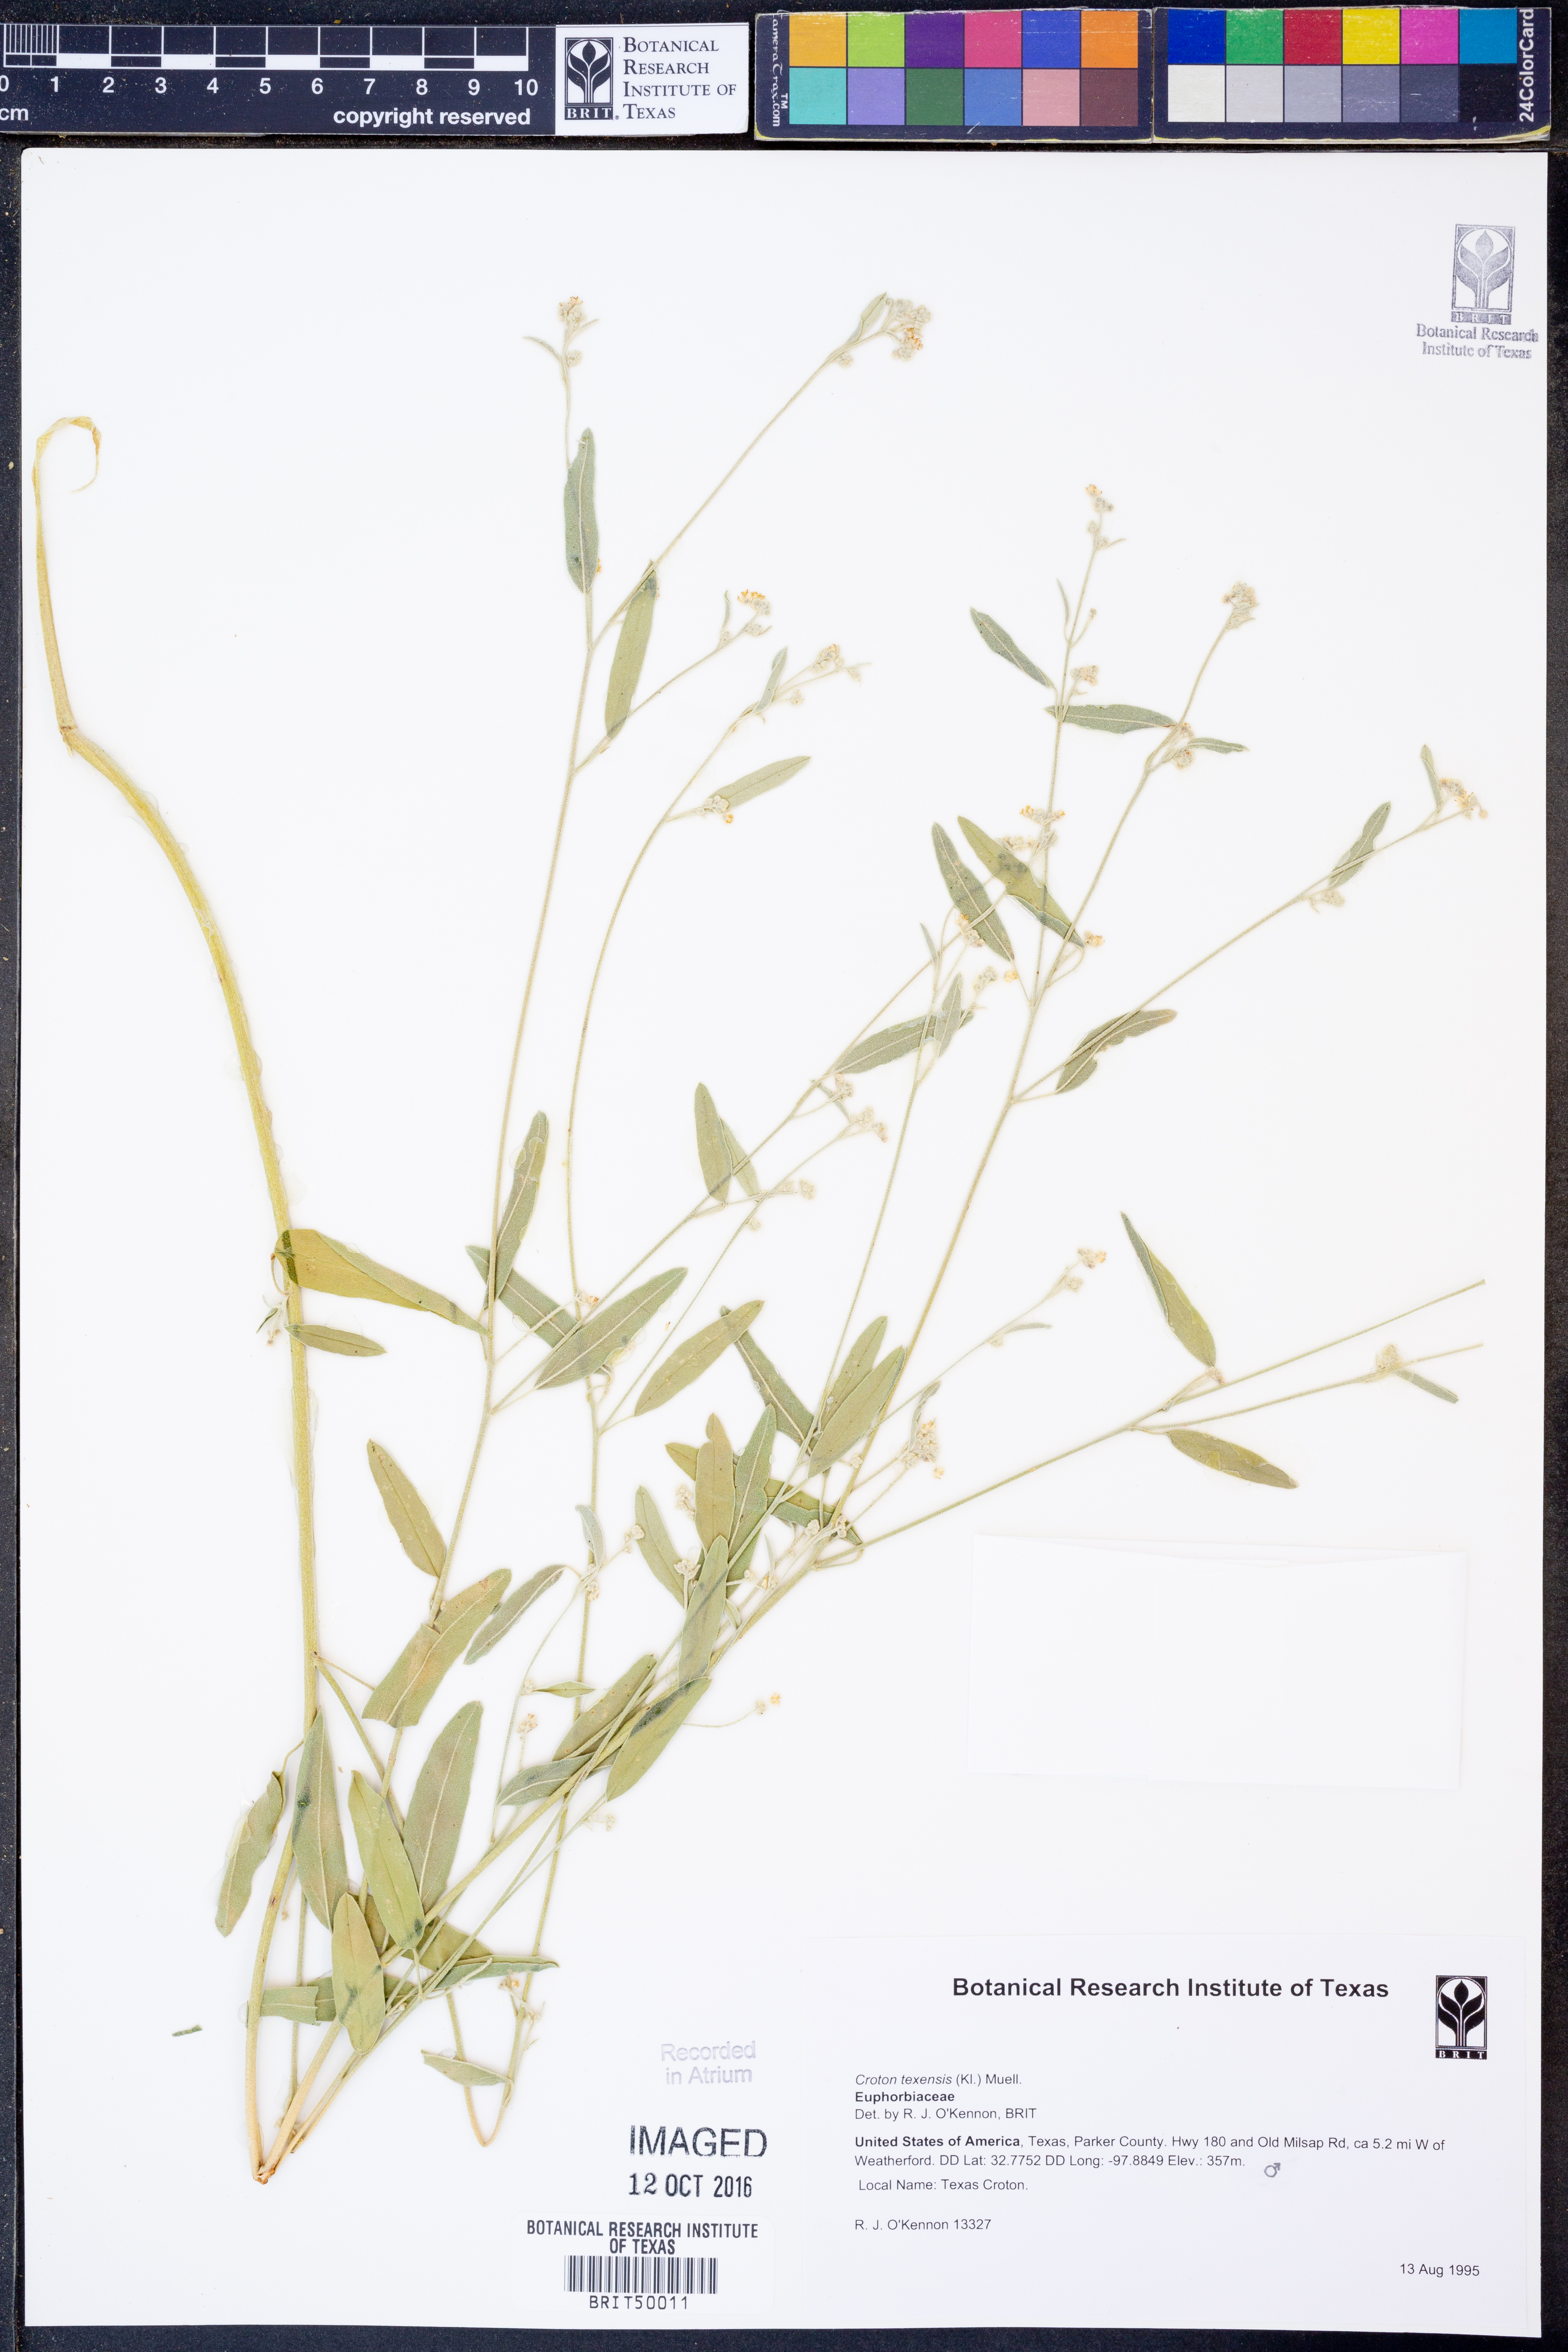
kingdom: Plantae
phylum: Tracheophyta
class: Magnoliopsida
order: Malpighiales
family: Euphorbiaceae
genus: Croton
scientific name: Croton texensis
